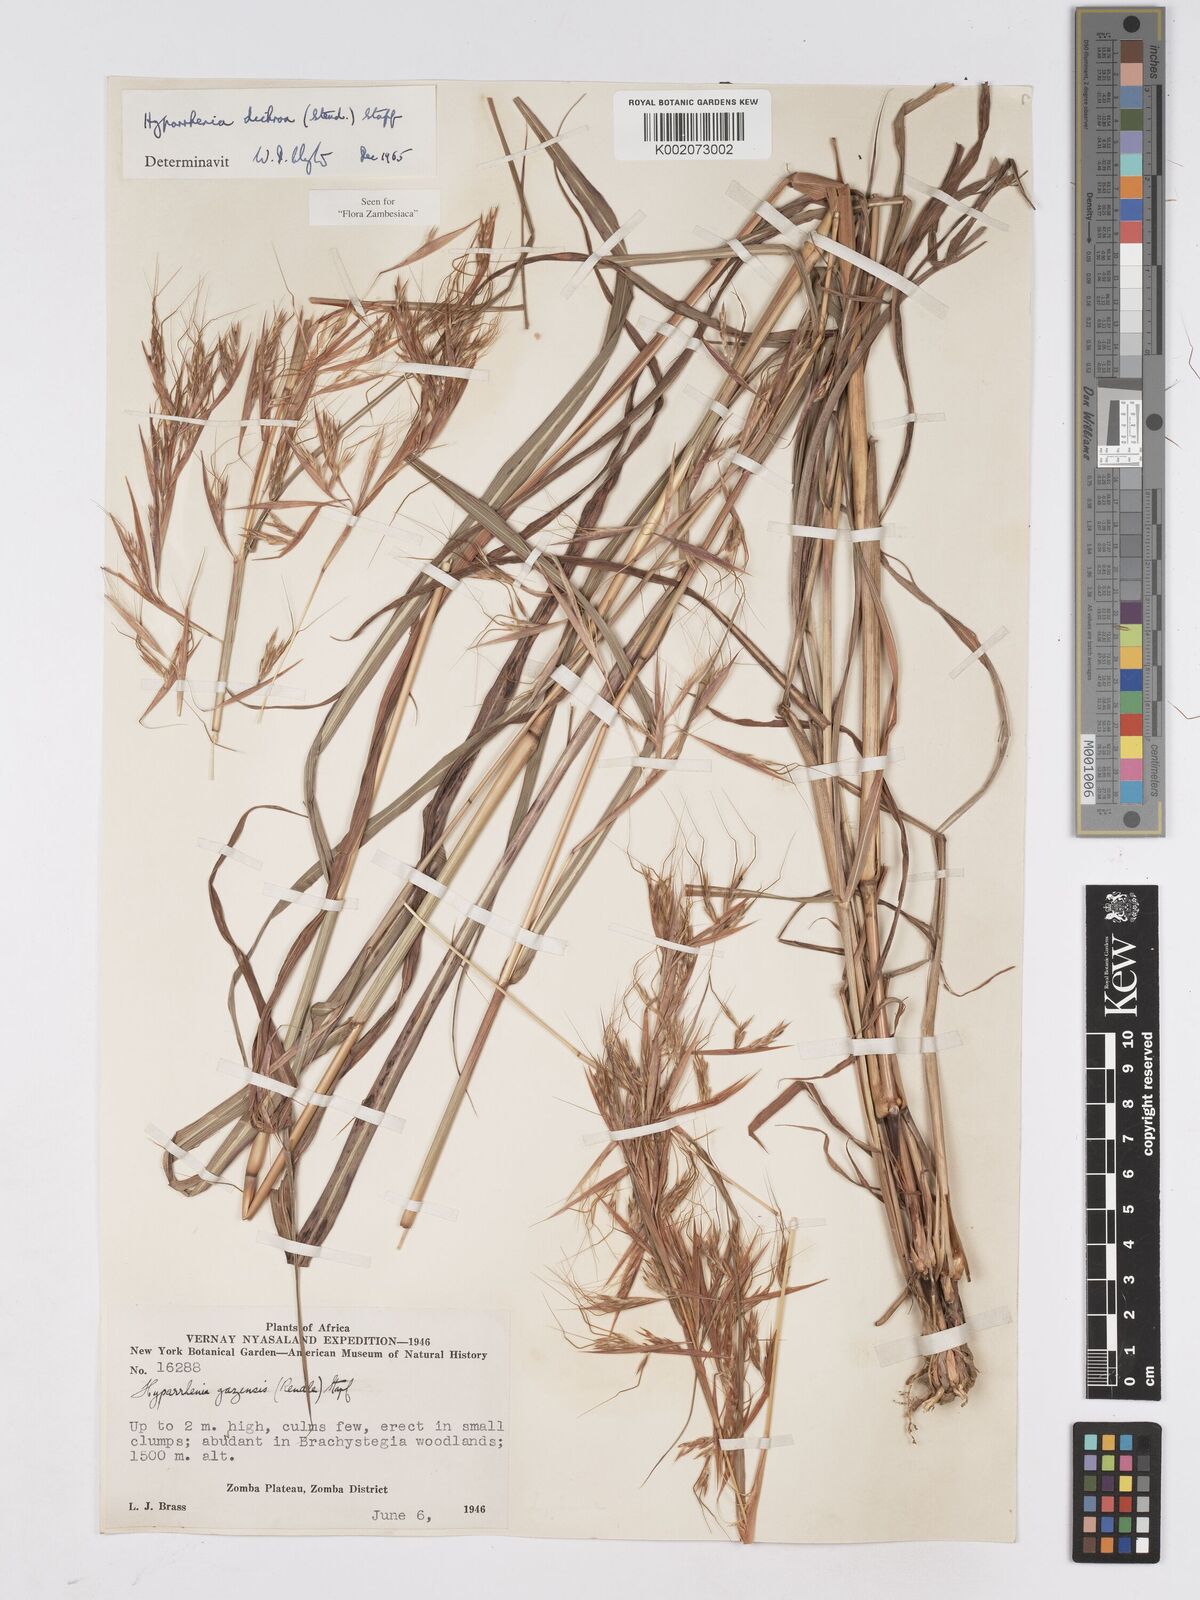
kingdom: Plantae
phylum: Tracheophyta
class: Liliopsida
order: Poales
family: Poaceae
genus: Hyparrhenia
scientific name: Hyparrhenia dichroa
